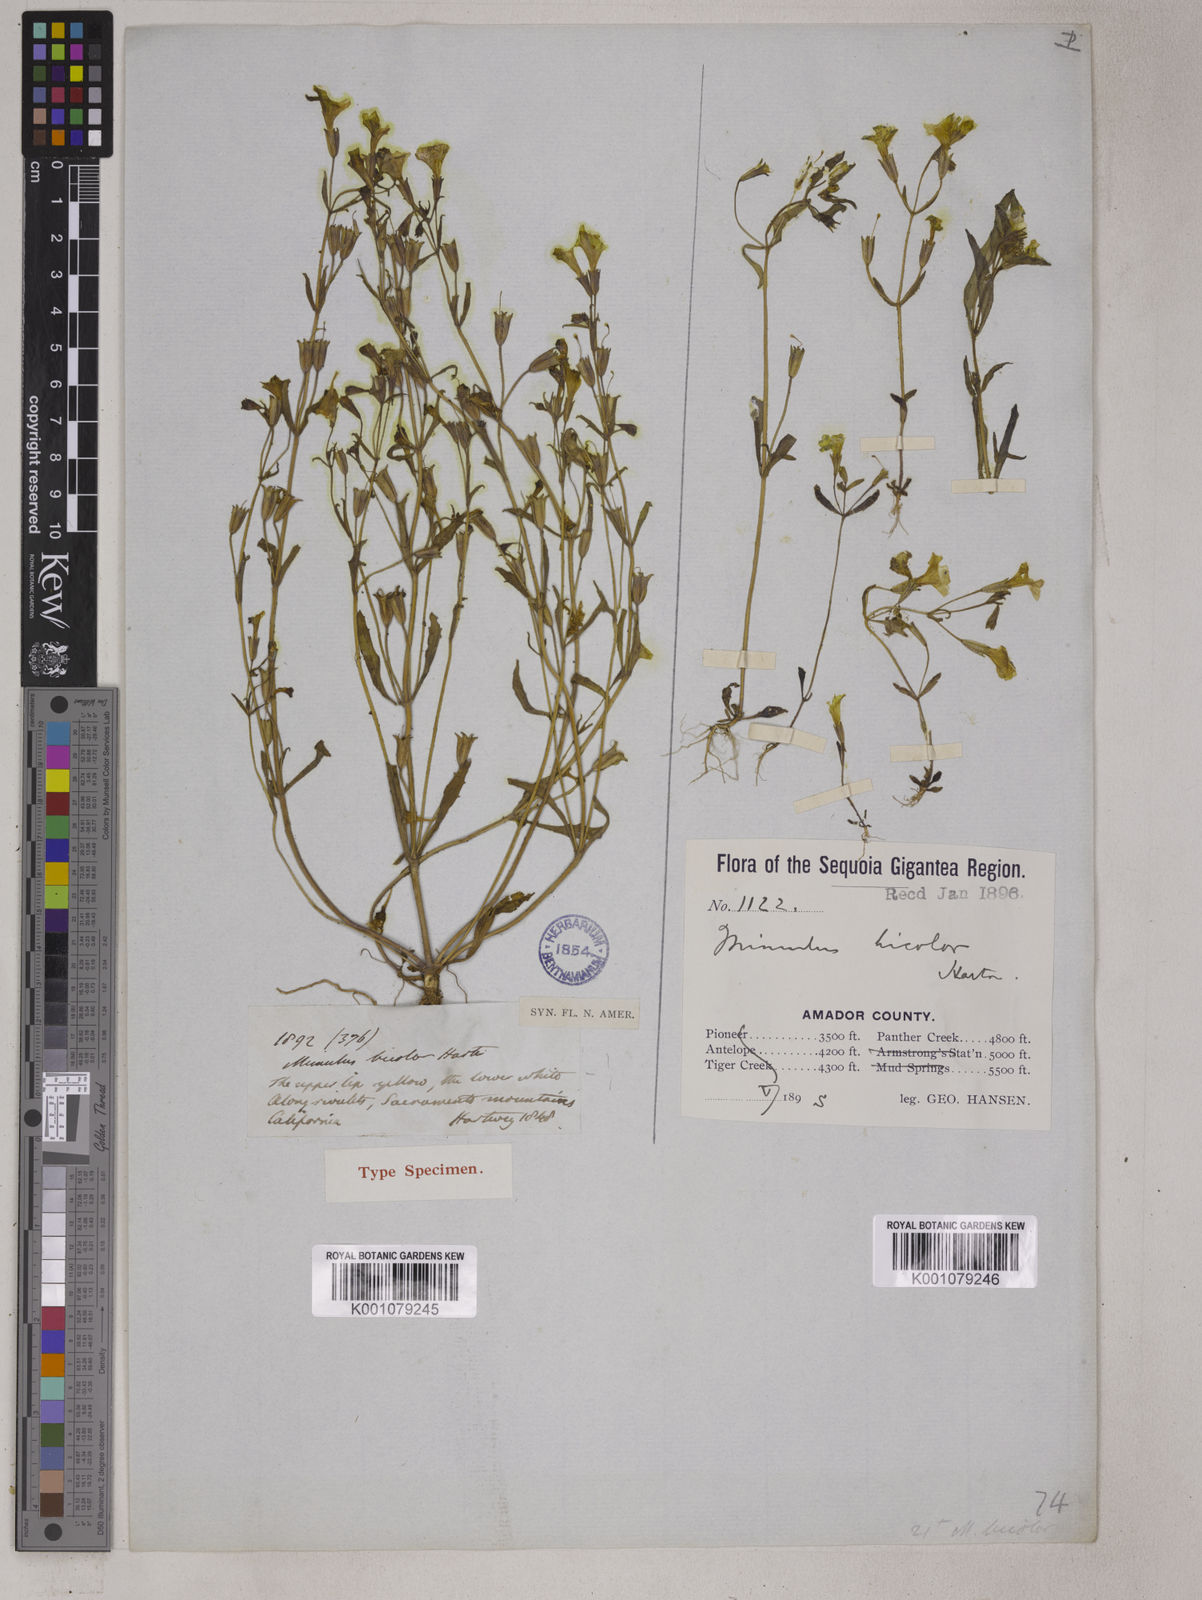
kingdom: Plantae
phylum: Tracheophyta
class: Magnoliopsida
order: Lamiales
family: Phrymaceae
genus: Erythranthe
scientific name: Erythranthe bicolor
